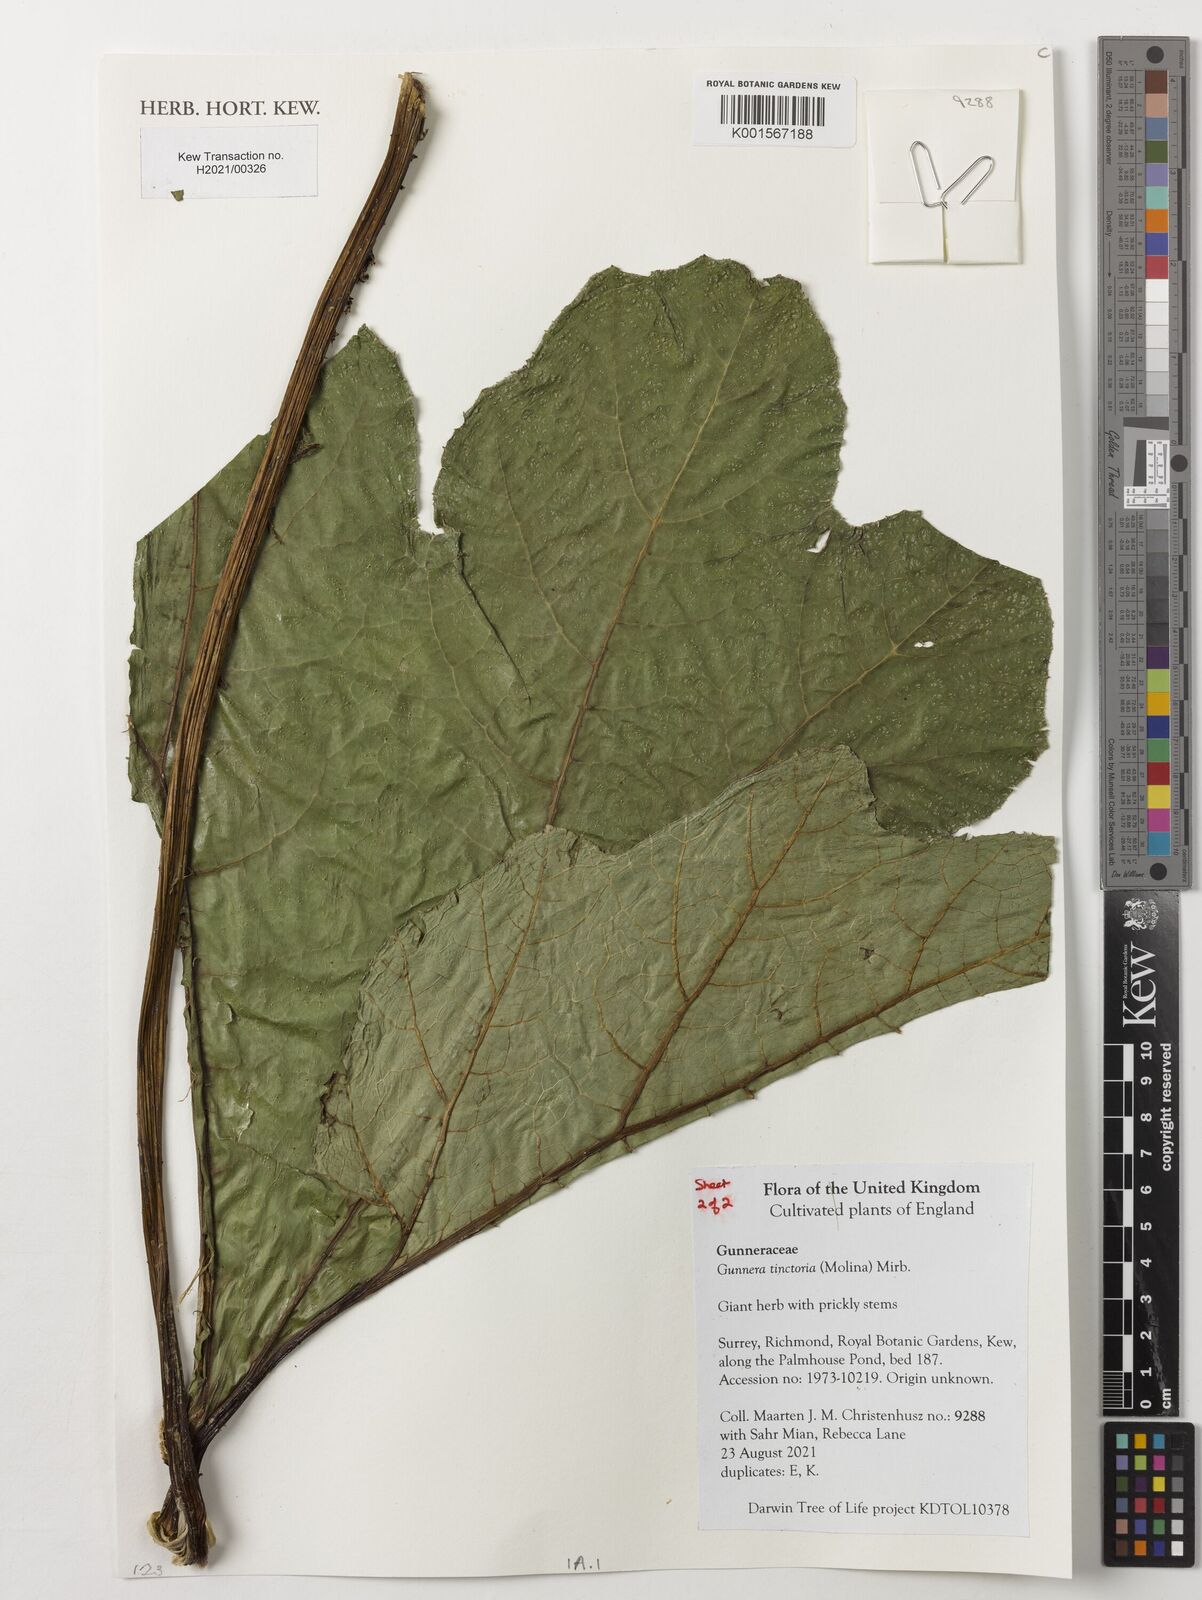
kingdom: Plantae
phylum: Tracheophyta
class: Magnoliopsida
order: Gunnerales
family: Gunneraceae
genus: Gunnera
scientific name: Gunnera tinctoria
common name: Giant-rhubarb
